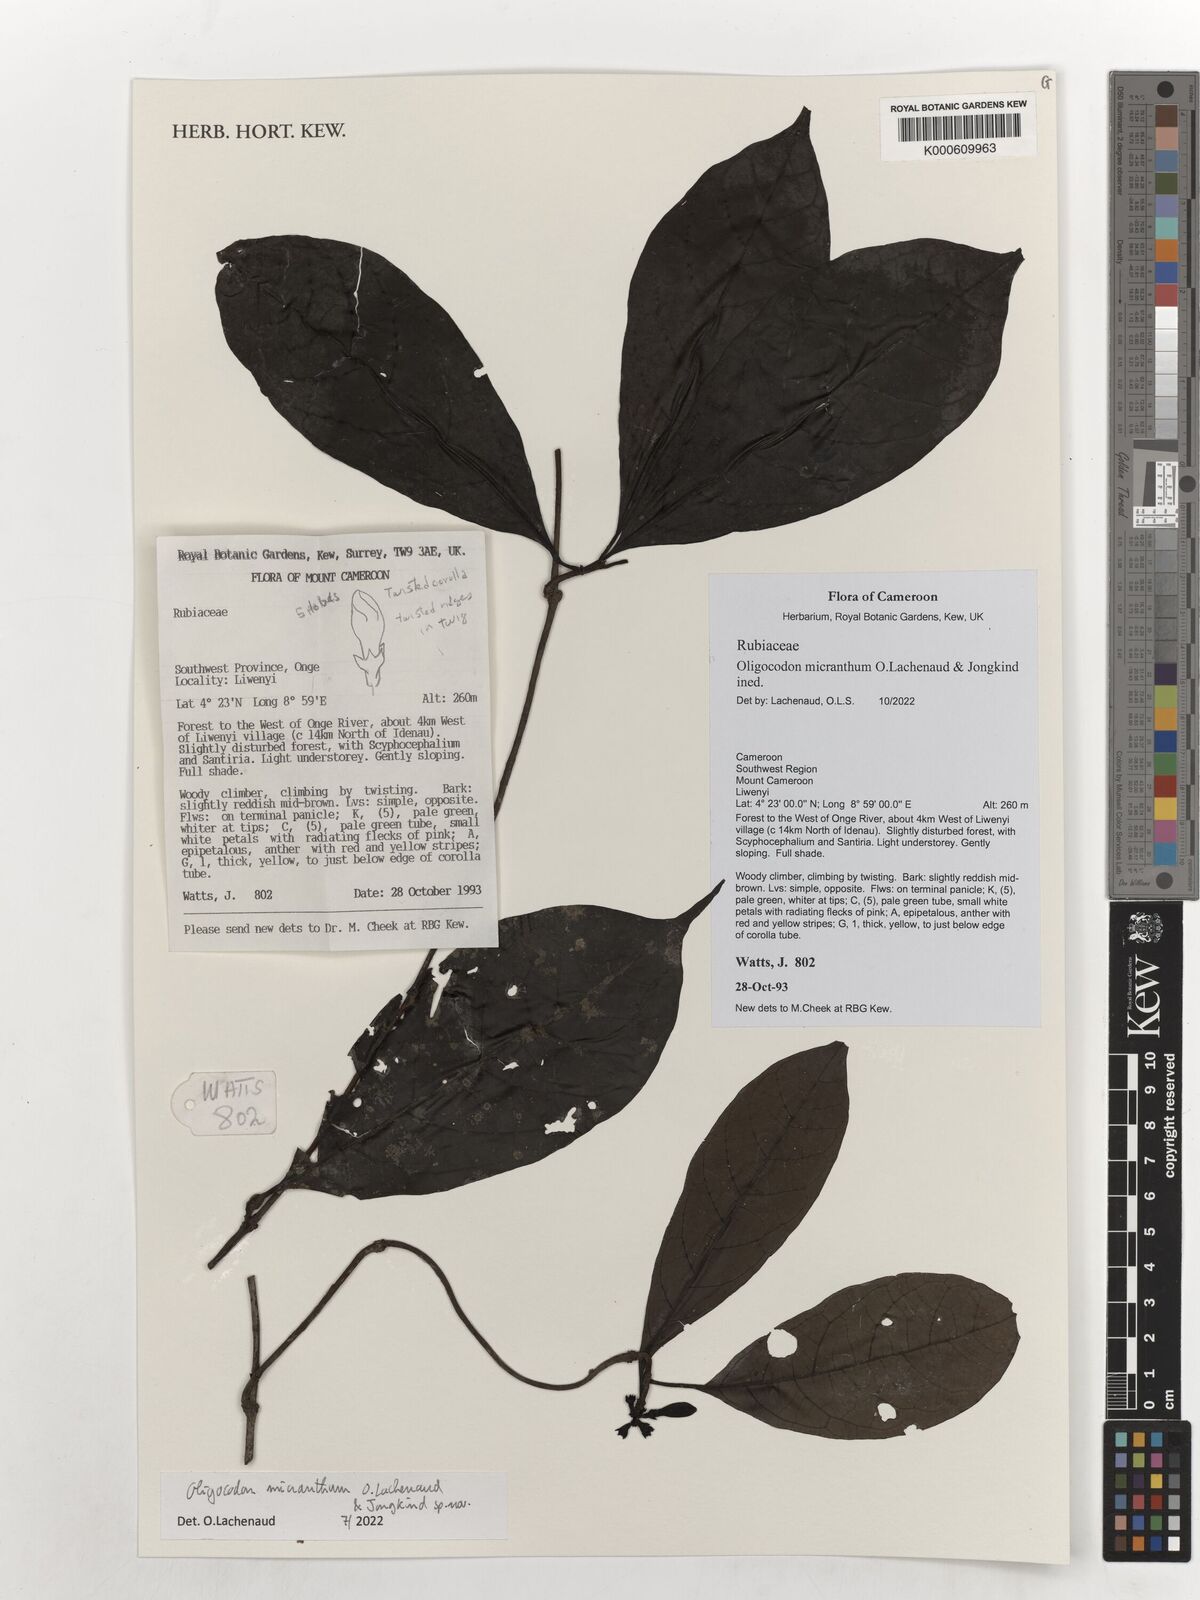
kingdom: Plantae
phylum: Tracheophyta
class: Magnoliopsida
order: Gentianales
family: Rubiaceae
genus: Oligocodon
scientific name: Oligocodon
